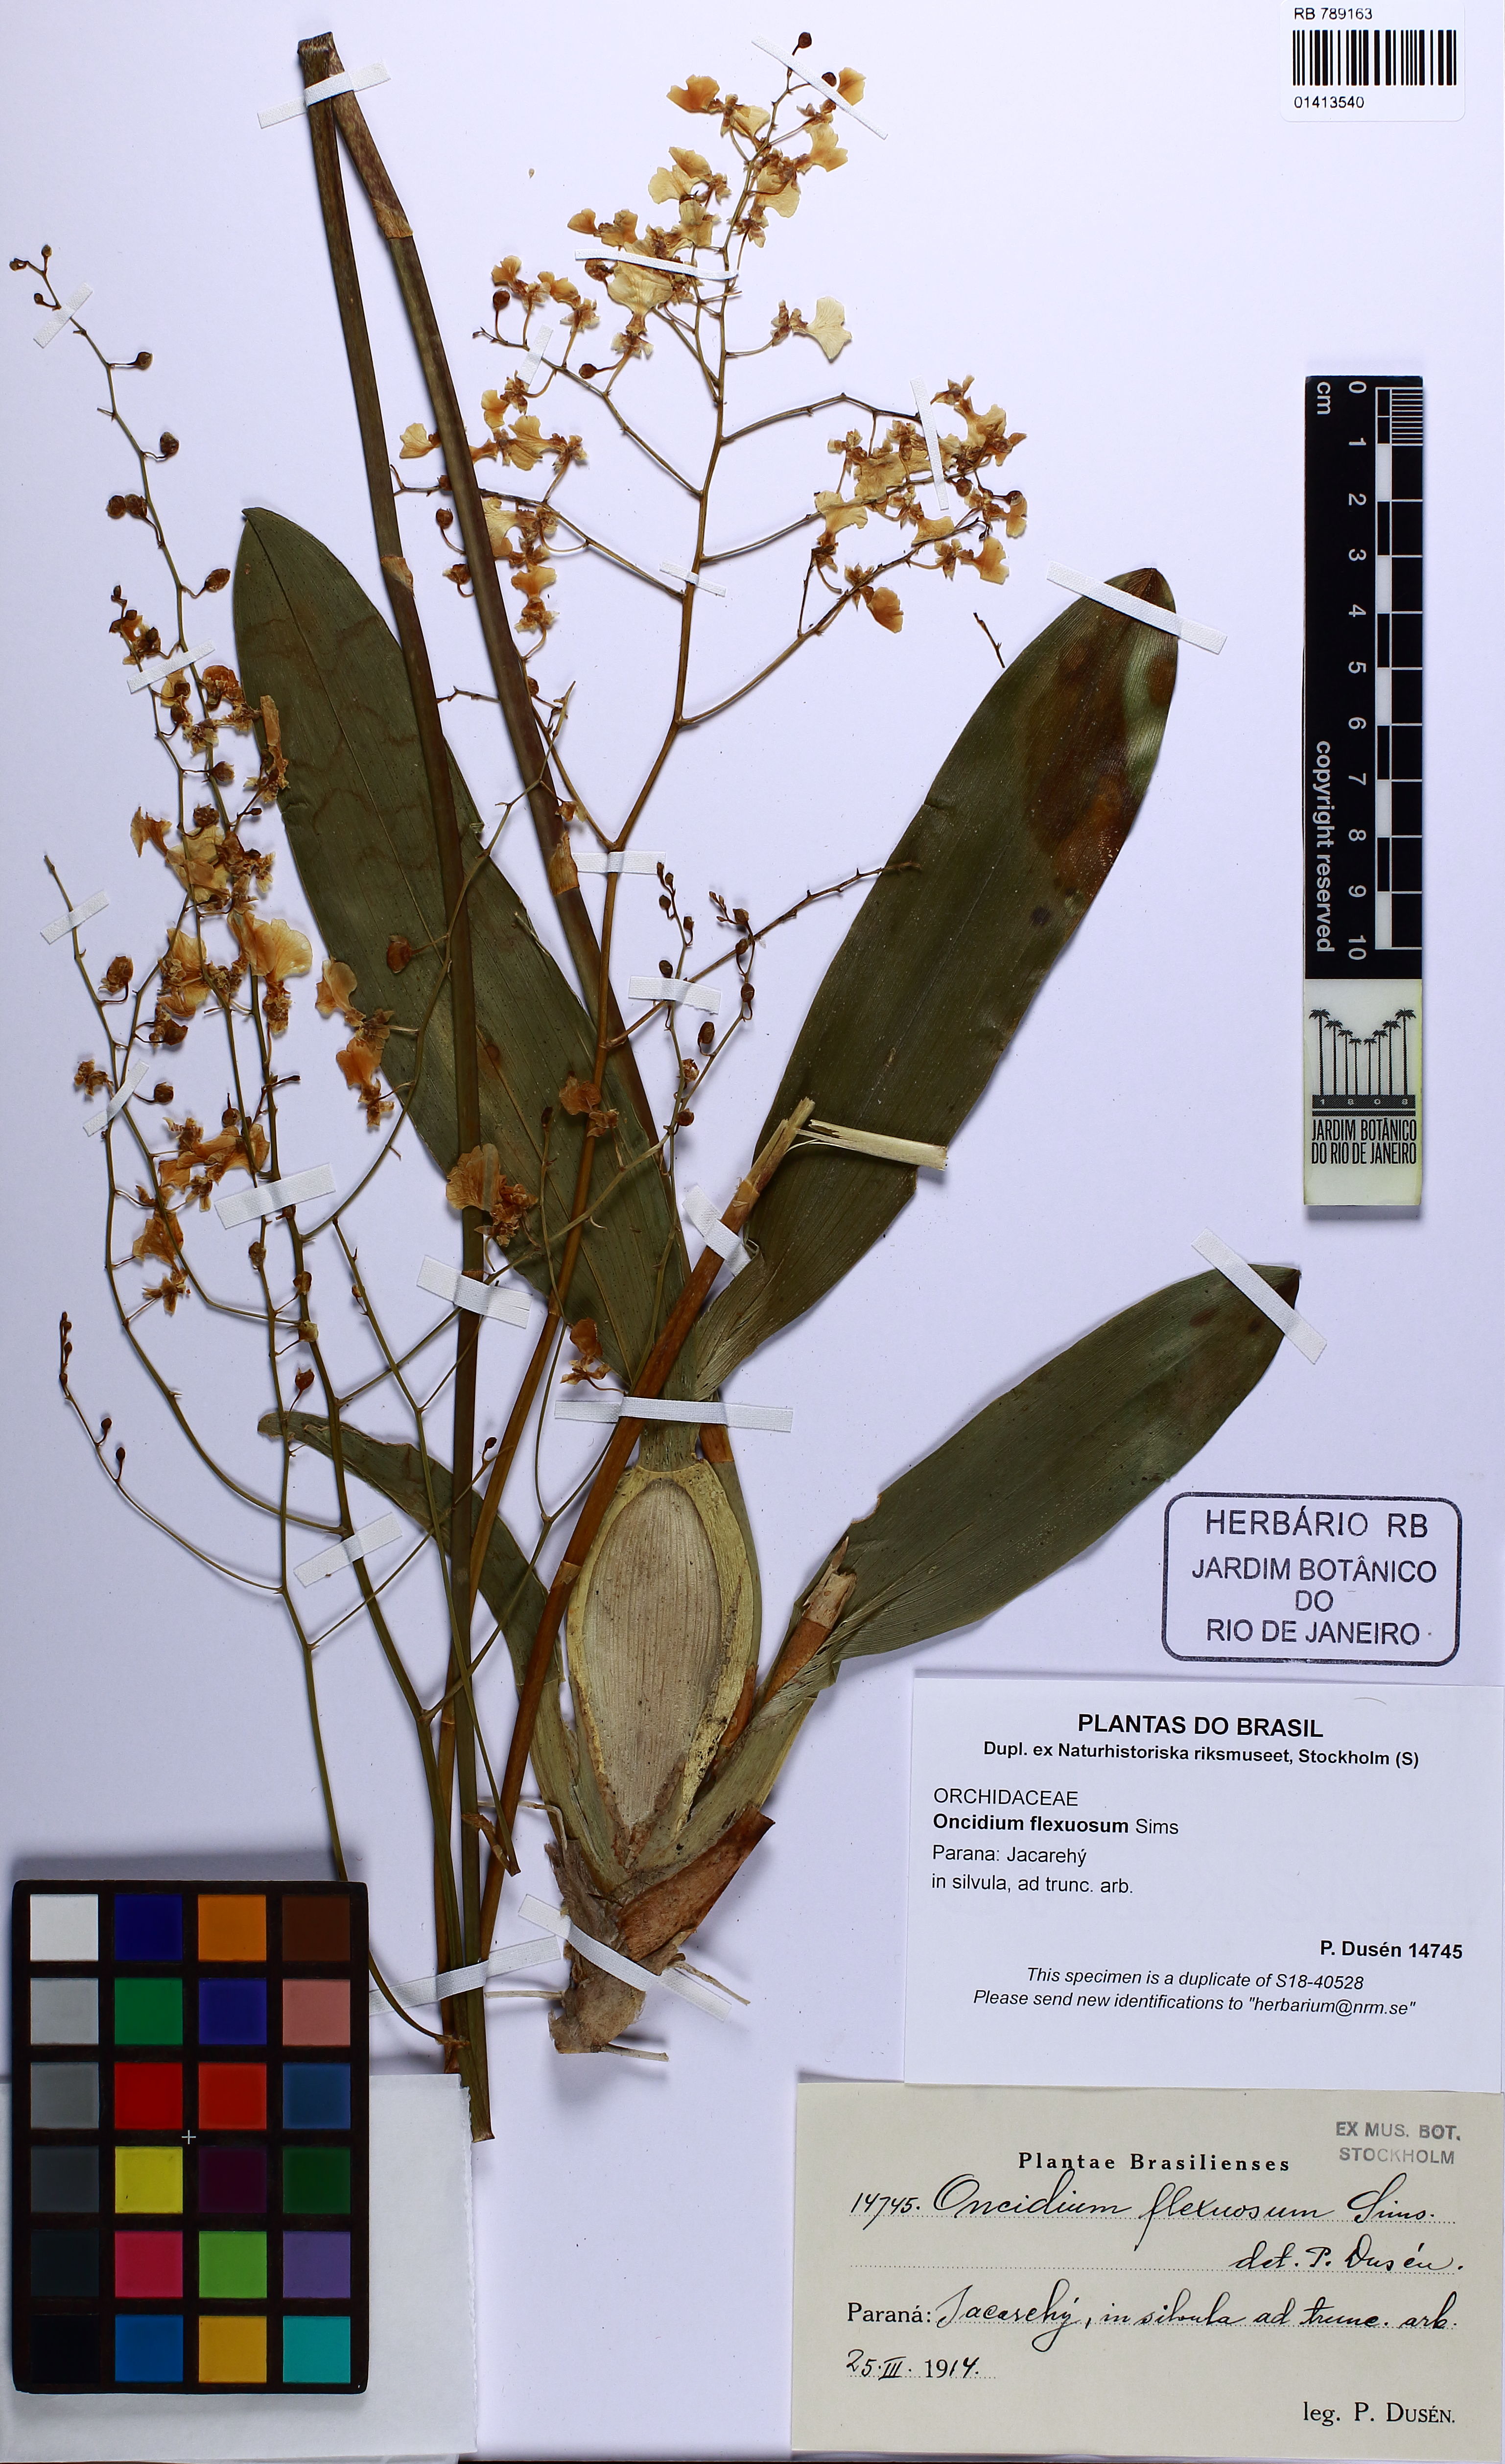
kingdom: Plantae
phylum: Tracheophyta
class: Liliopsida
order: Asparagales
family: Orchidaceae
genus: Gomesa
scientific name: Gomesa flexuosa
